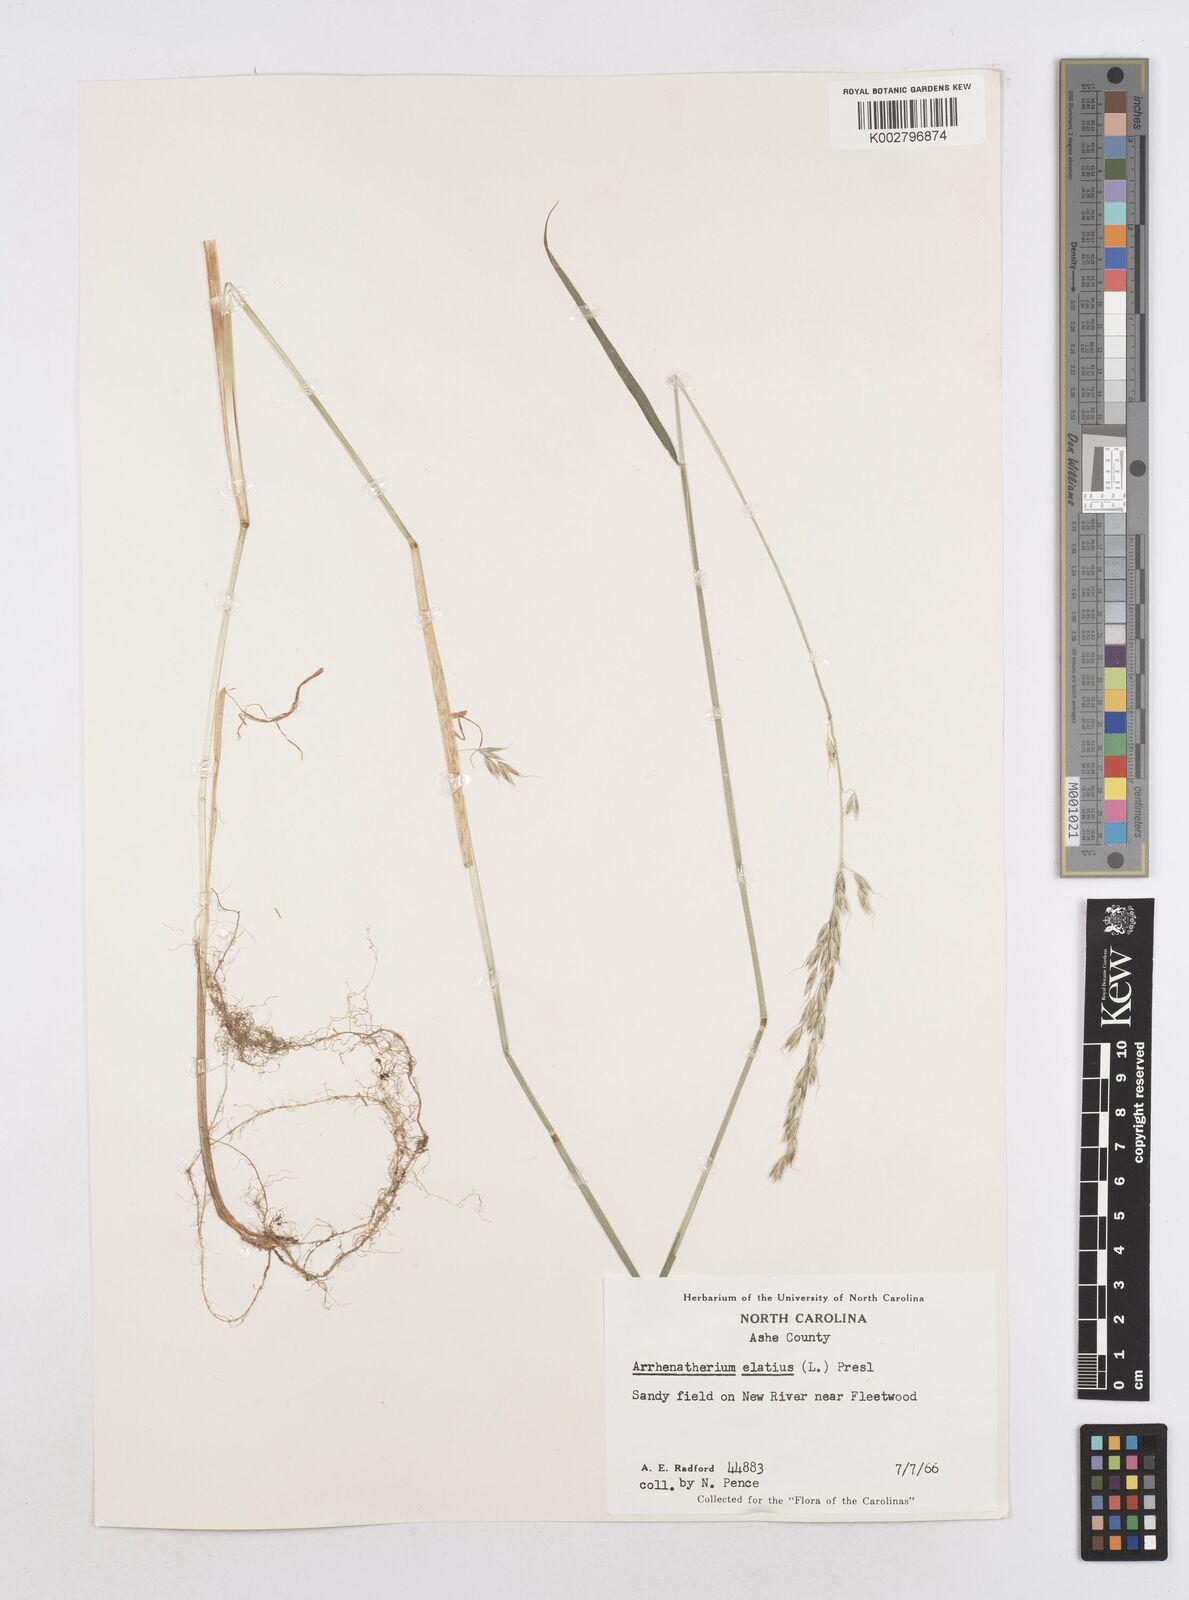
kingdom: Plantae
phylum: Tracheophyta
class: Liliopsida
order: Poales
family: Poaceae
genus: Arrhenatherum
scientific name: Arrhenatherum elatius
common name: Tall oatgrass
